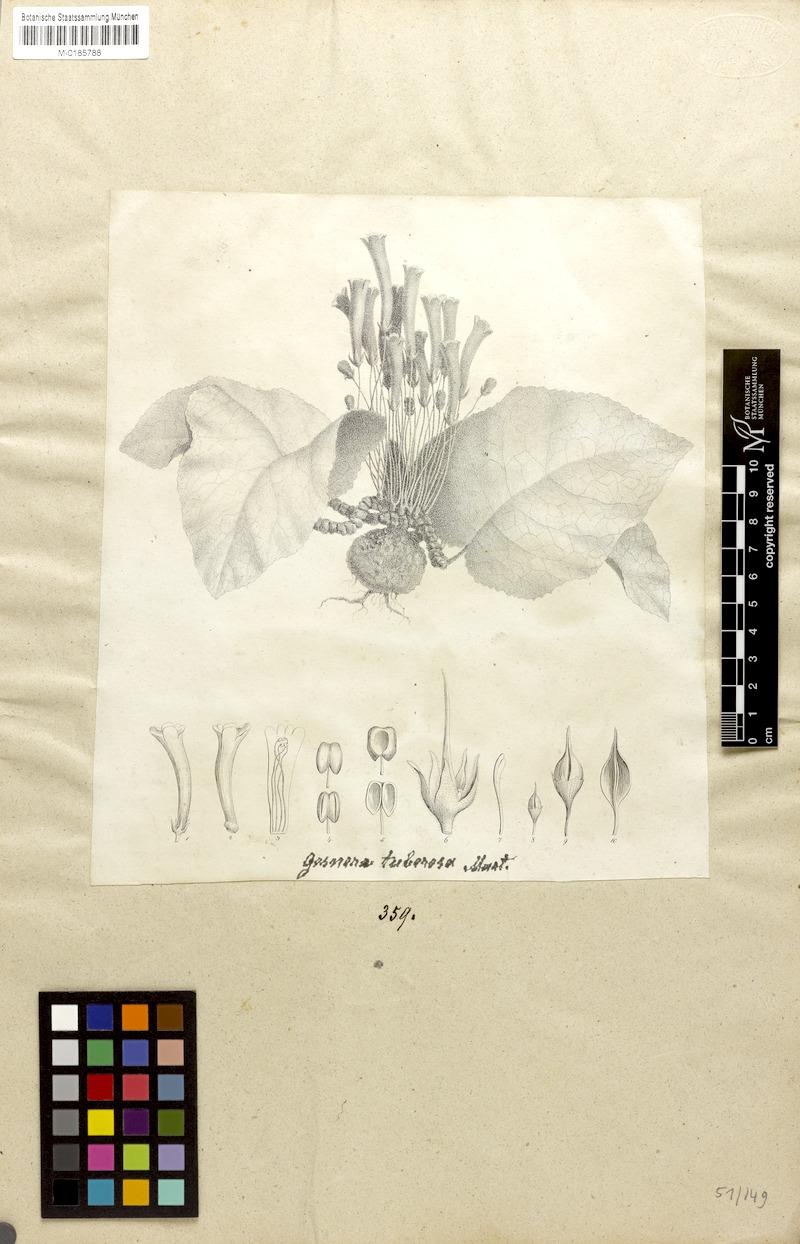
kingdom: Plantae
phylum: Tracheophyta
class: Magnoliopsida
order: Lamiales
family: Gesneriaceae
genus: Sinningia
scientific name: Sinningia tuberosa
